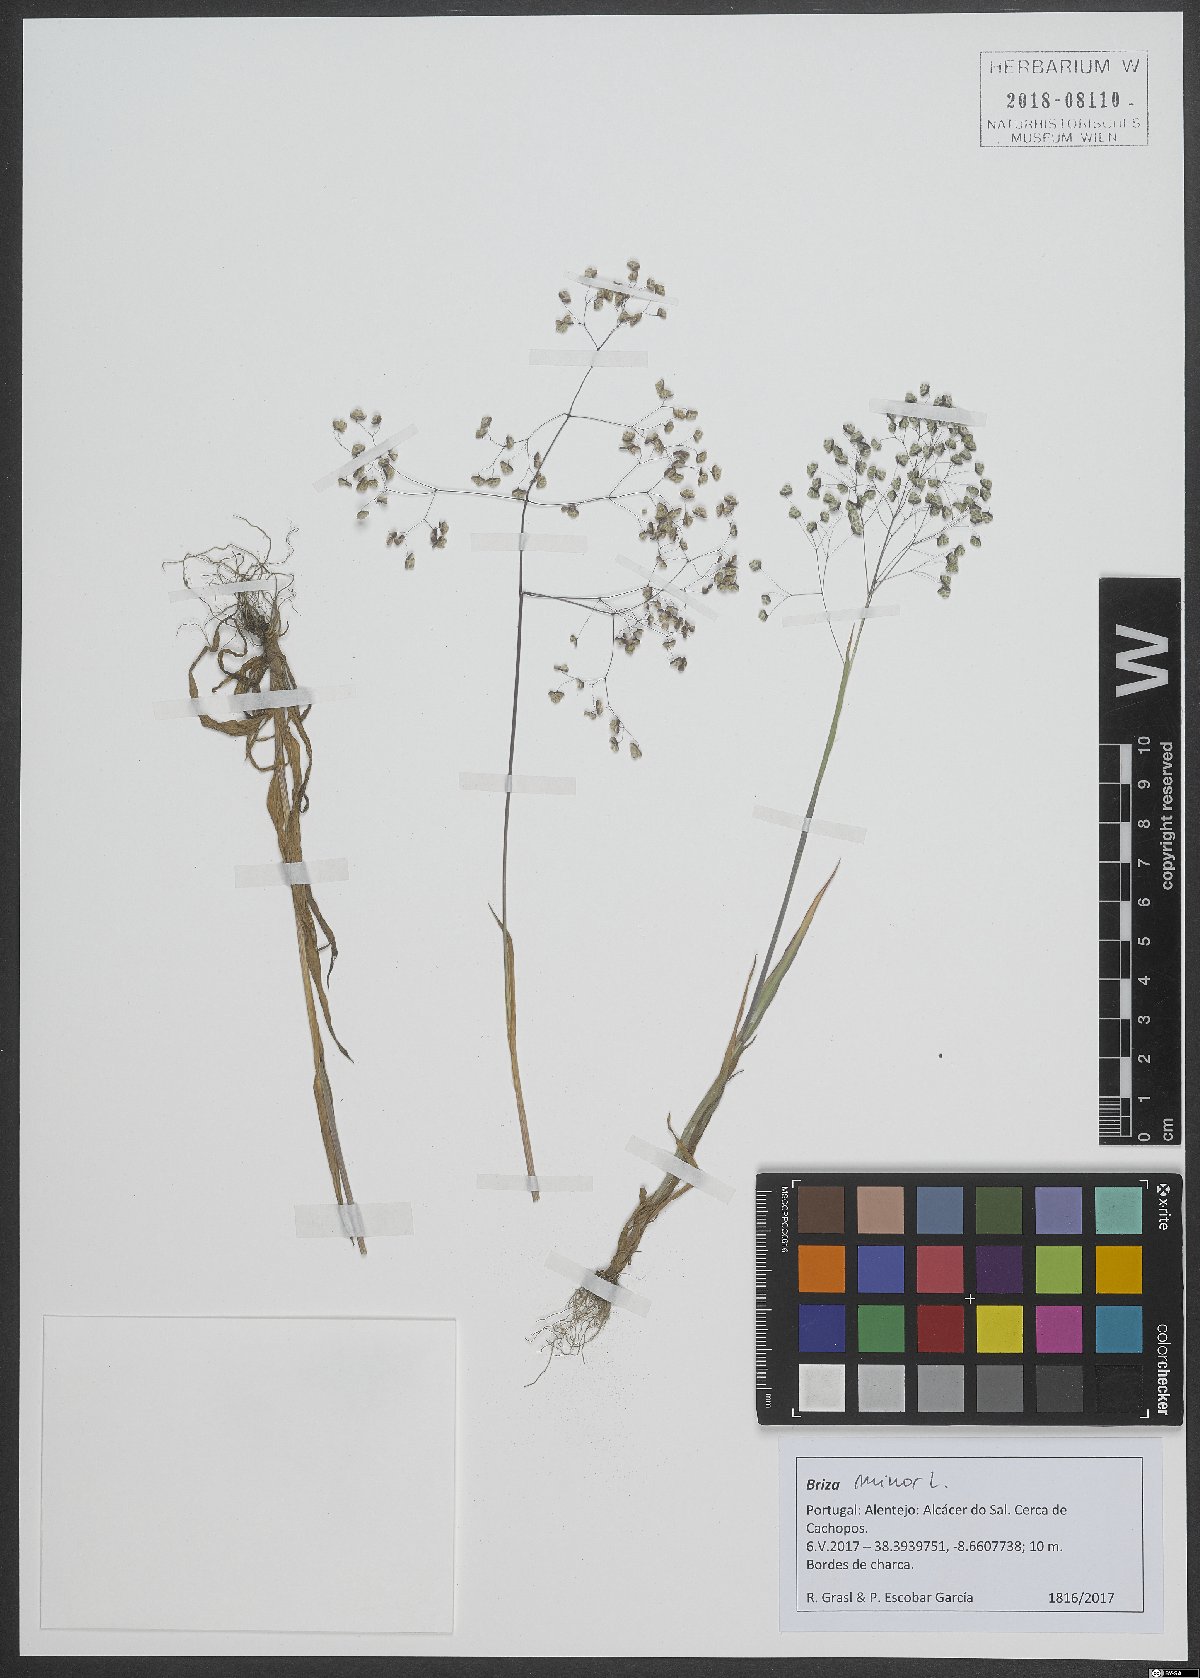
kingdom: Plantae
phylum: Tracheophyta
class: Liliopsida
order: Poales
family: Poaceae
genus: Briza
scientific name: Briza minor
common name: Lesser quaking-grass
